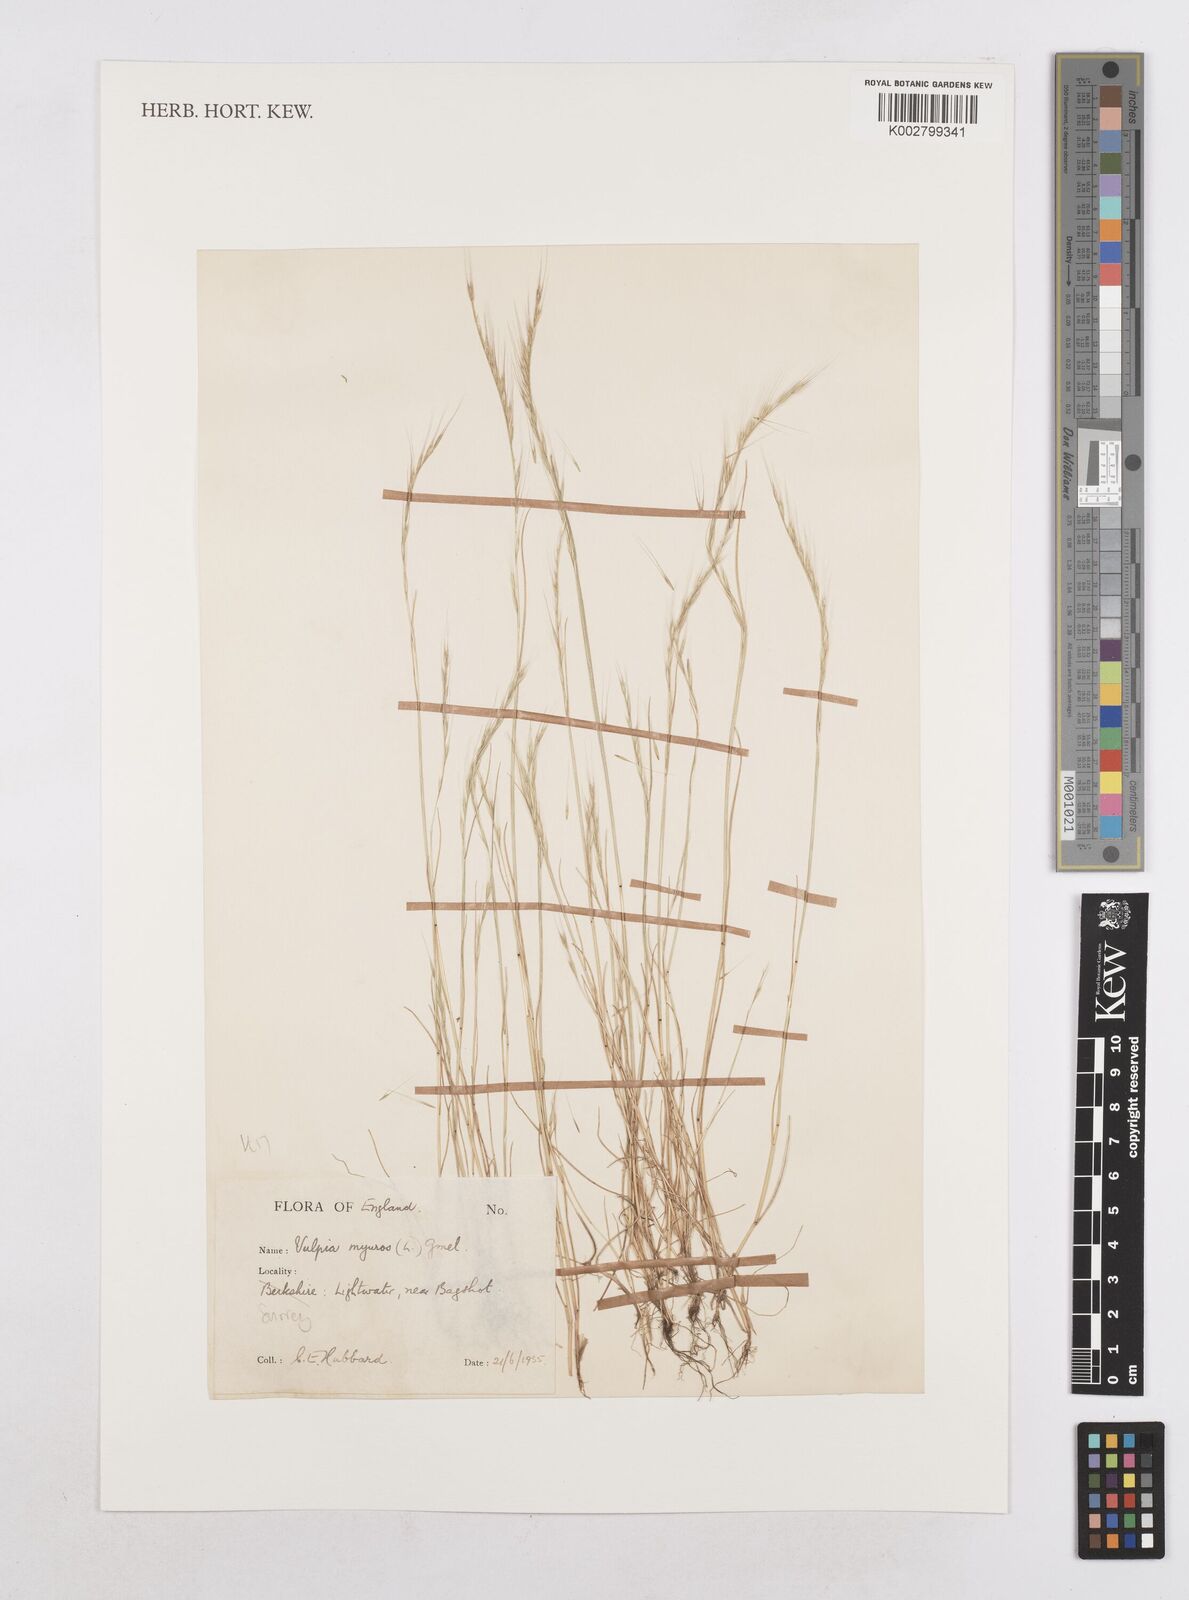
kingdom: Plantae
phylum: Tracheophyta
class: Liliopsida
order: Poales
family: Poaceae
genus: Festuca
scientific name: Festuca myuros
